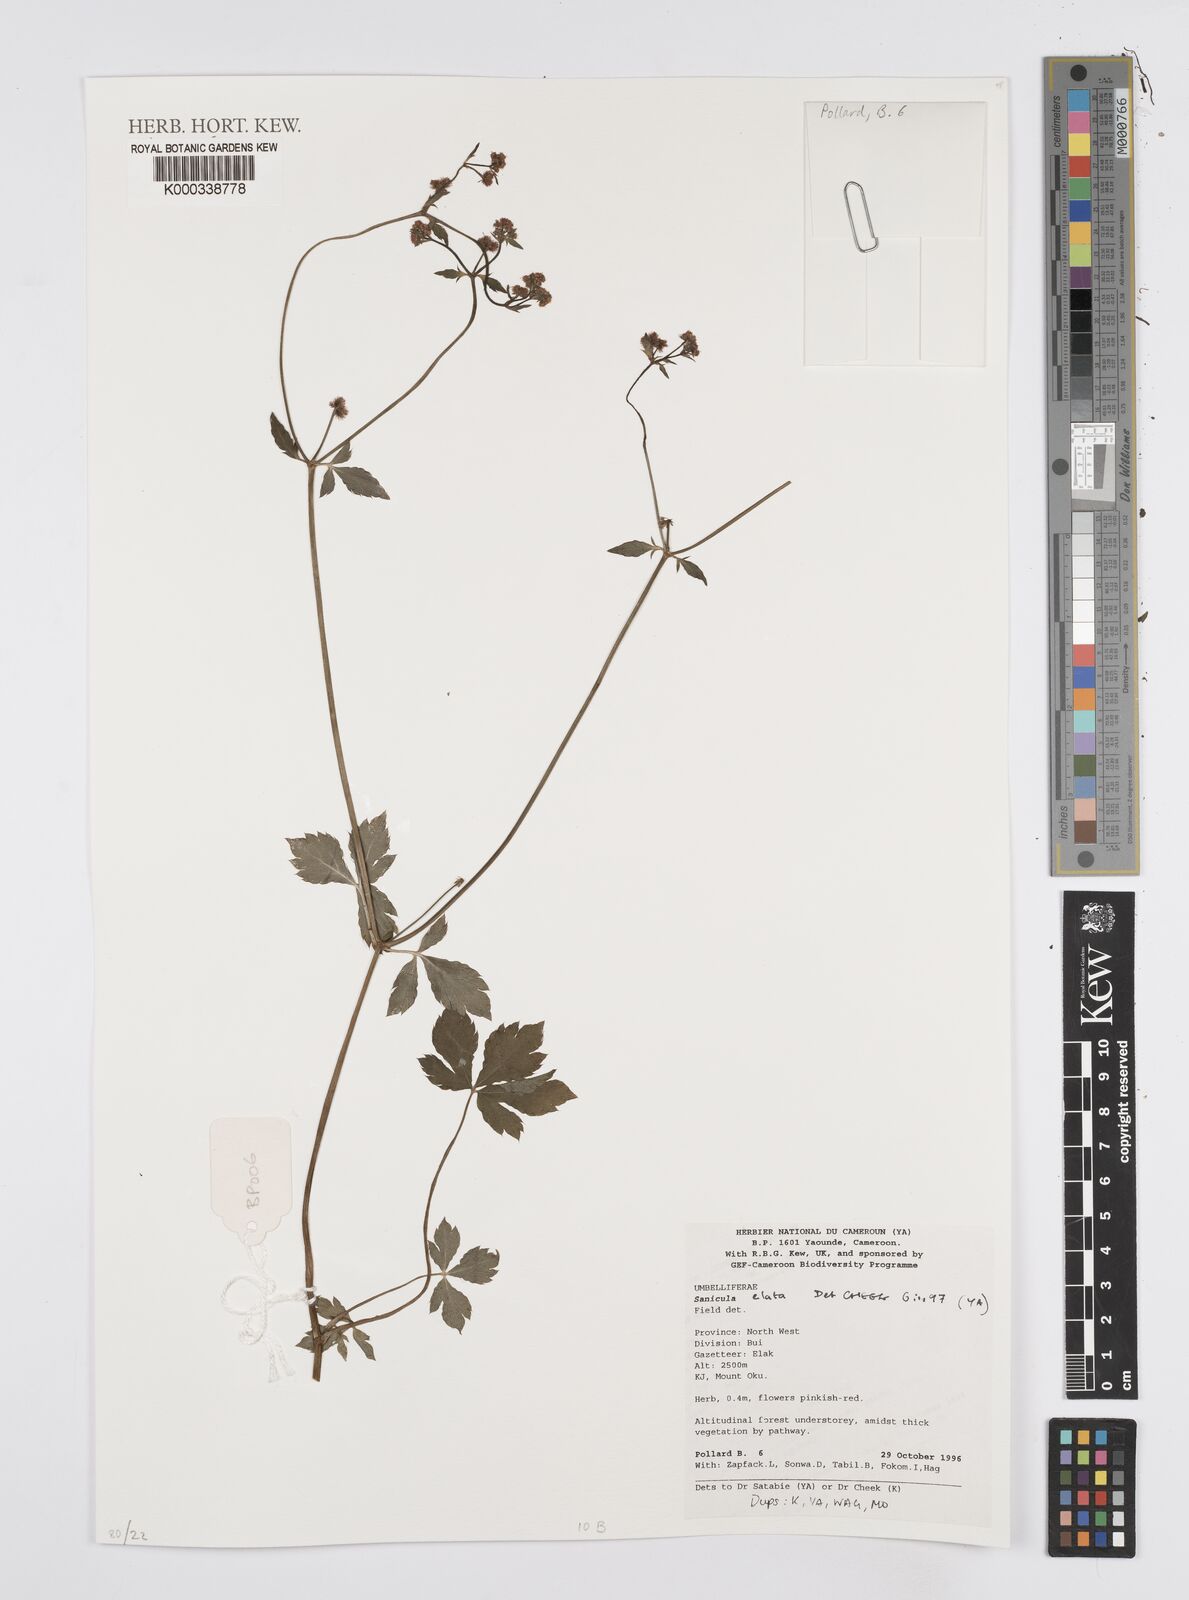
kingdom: Plantae
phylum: Tracheophyta
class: Magnoliopsida
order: Apiales
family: Apiaceae
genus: Sanicula
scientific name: Sanicula
